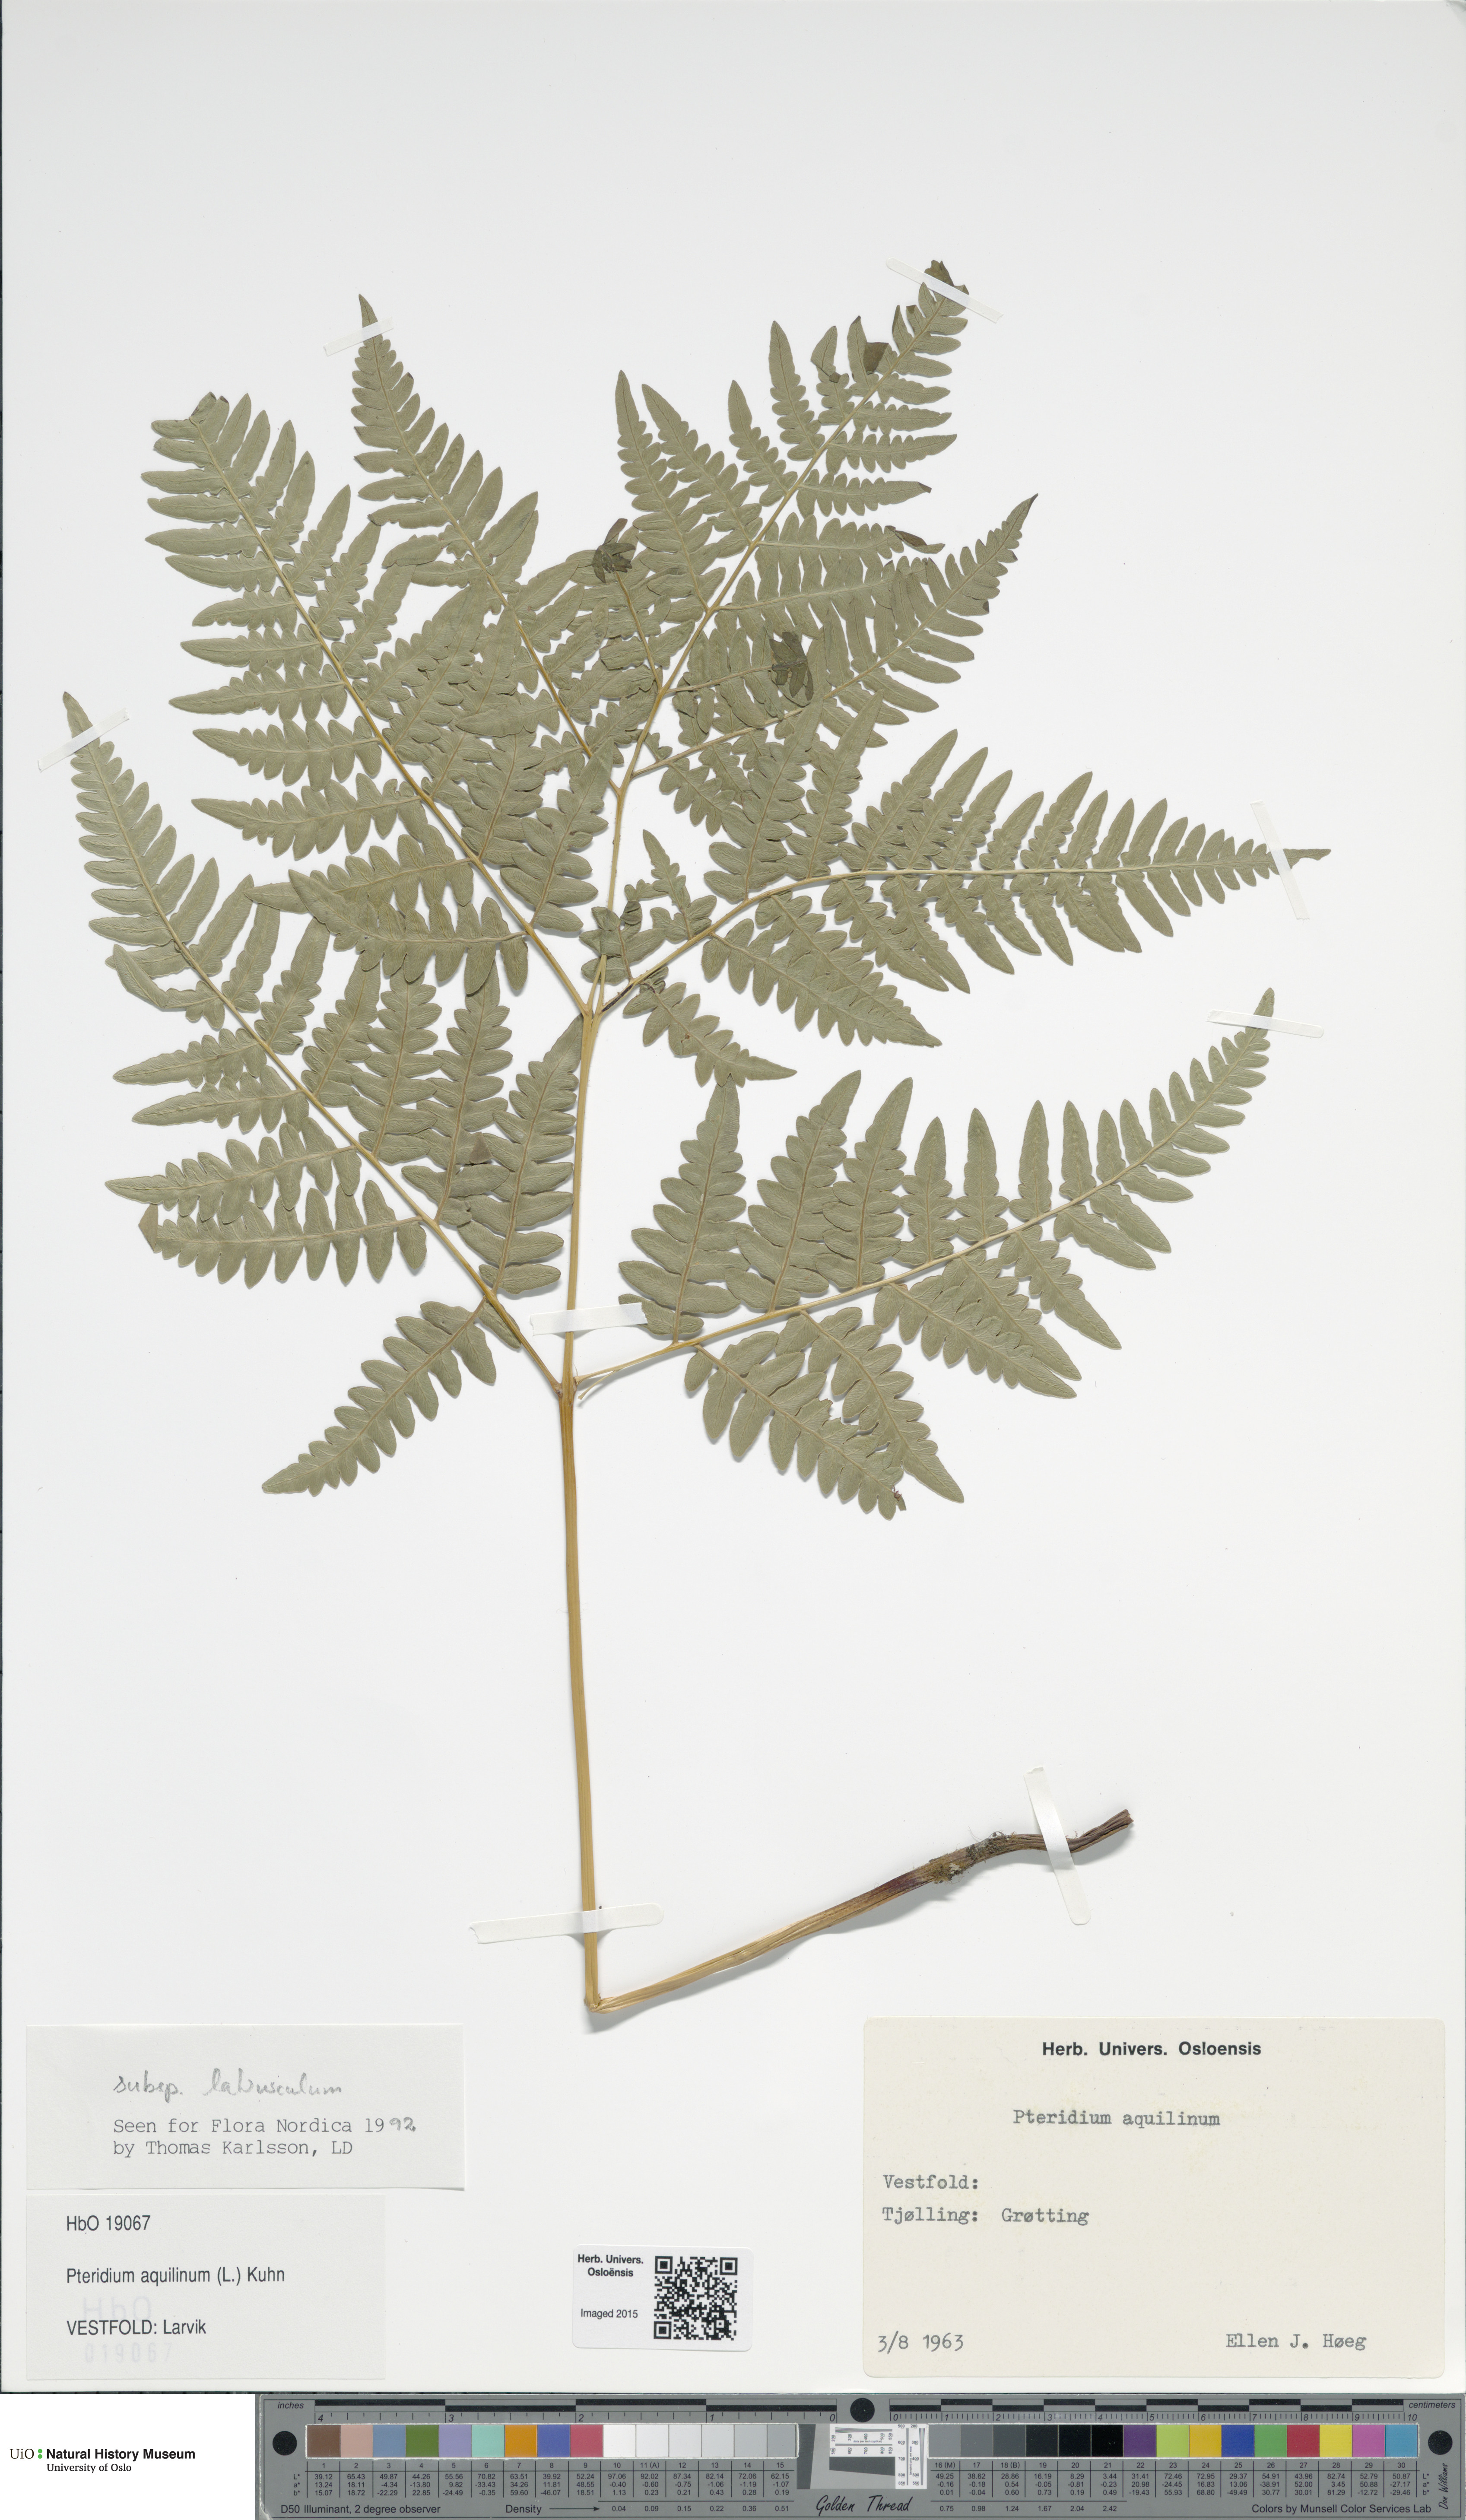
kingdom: Plantae
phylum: Tracheophyta
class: Polypodiopsida
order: Polypodiales
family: Dennstaedtiaceae
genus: Pteridium
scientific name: Pteridium aquilinum
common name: Bracken
